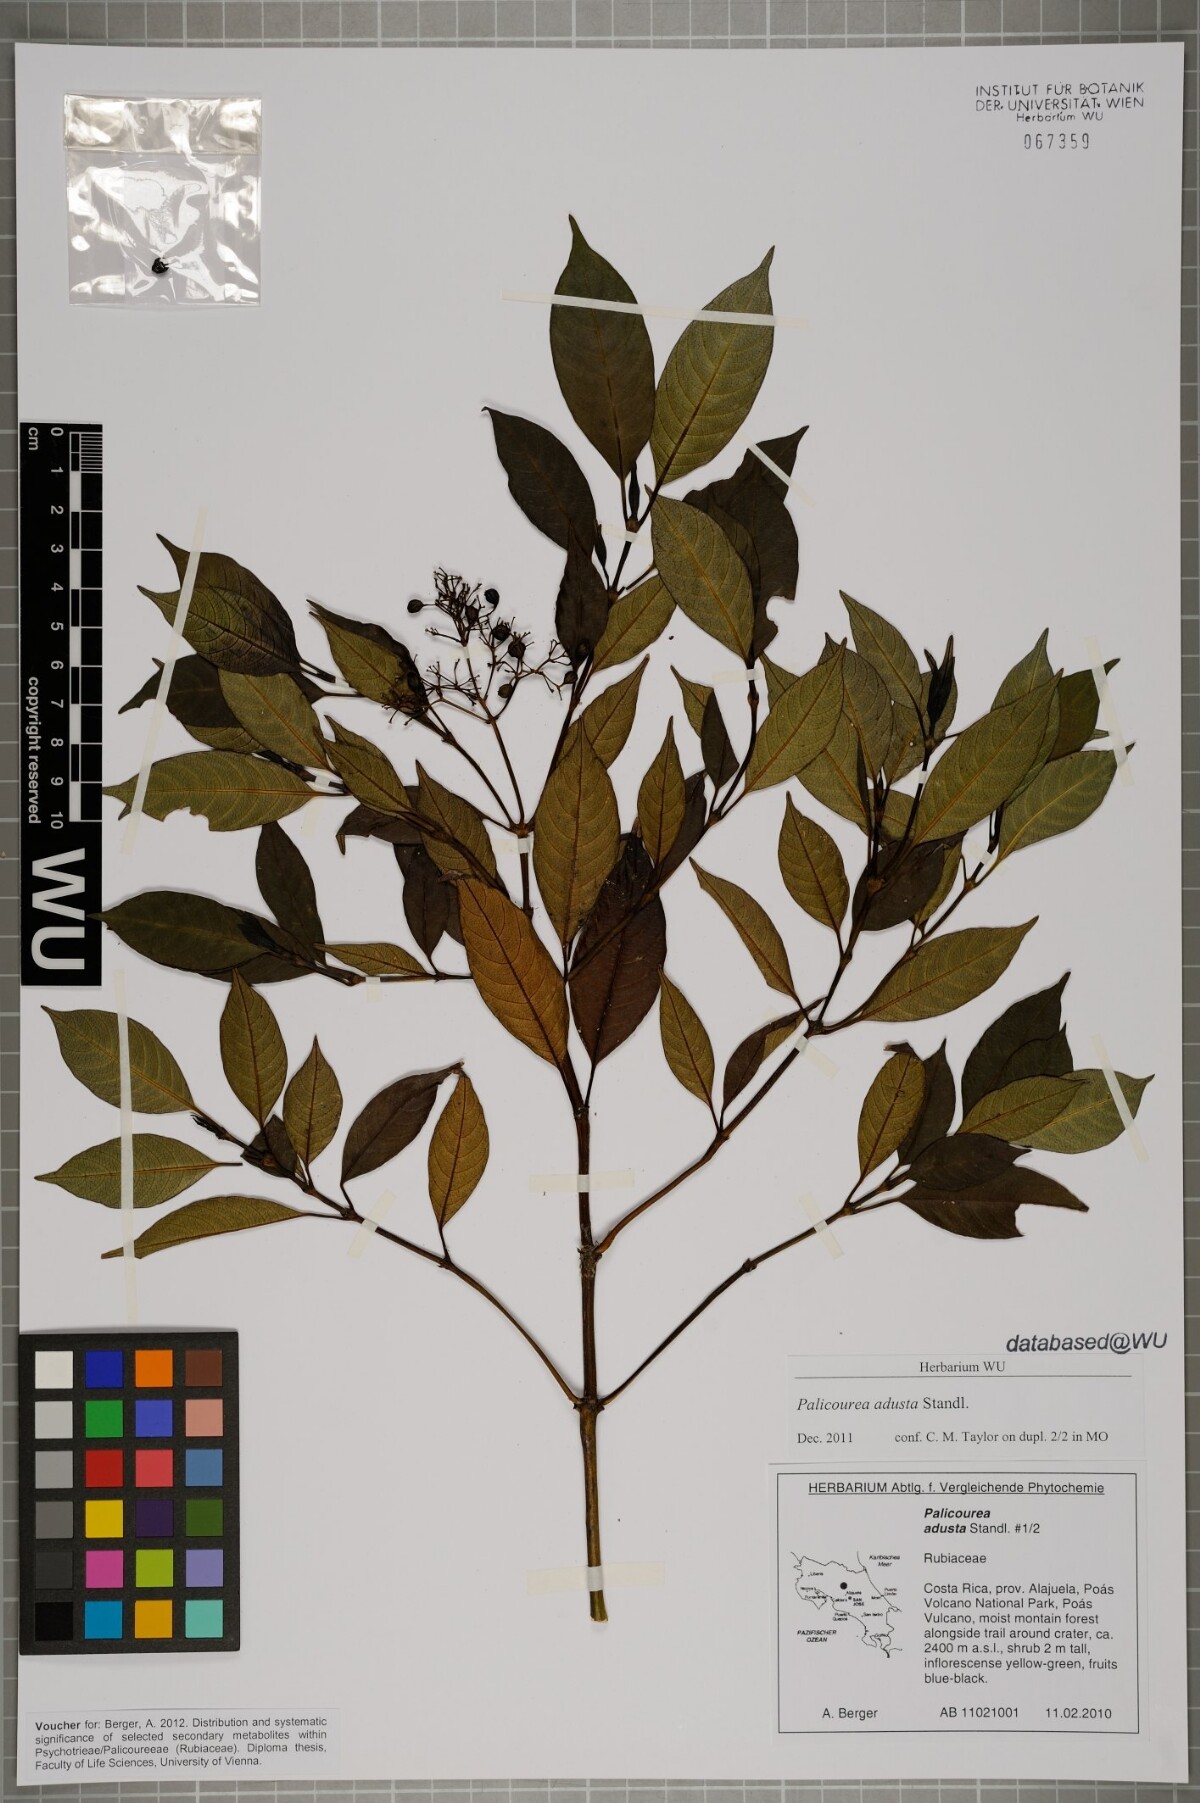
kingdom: Plantae
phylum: Tracheophyta
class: Magnoliopsida
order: Gentianales
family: Rubiaceae
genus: Palicourea
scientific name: Palicourea adusta
